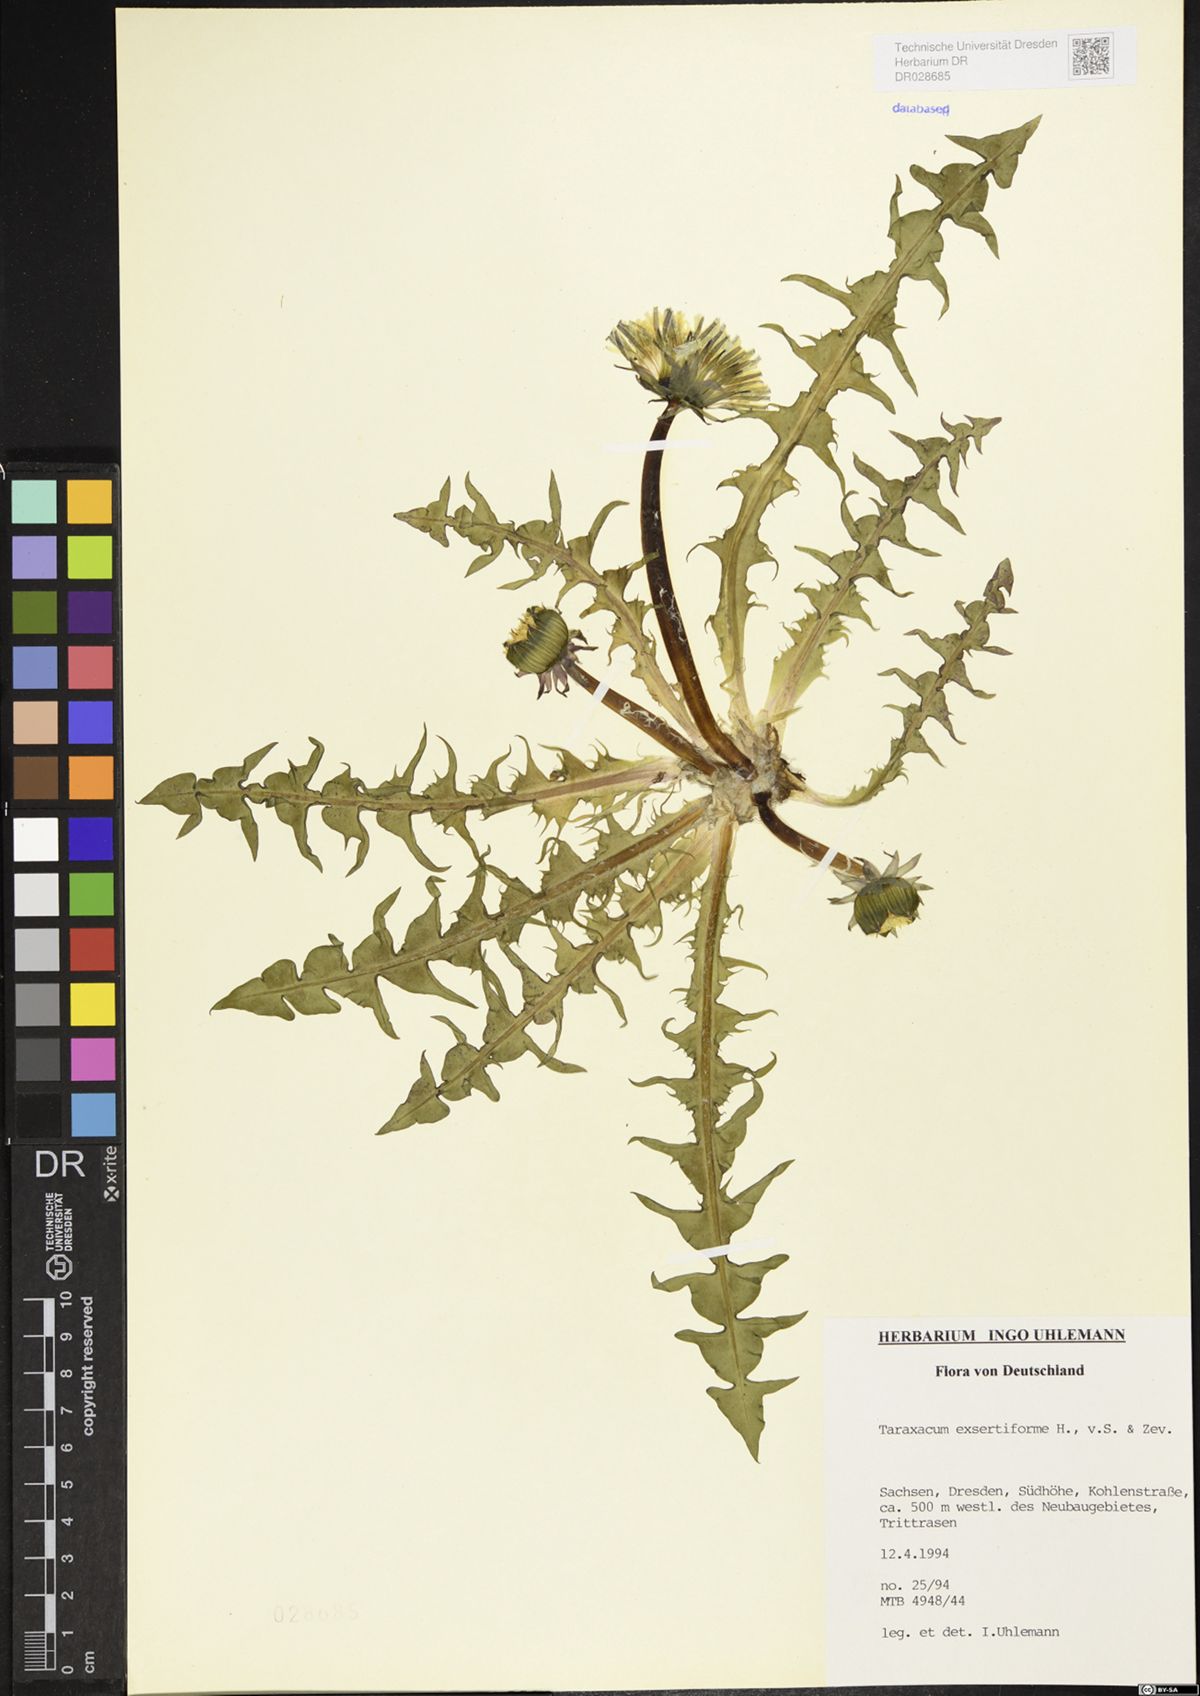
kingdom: Plantae
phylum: Tracheophyta
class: Magnoliopsida
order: Asterales
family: Asteraceae
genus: Taraxacum
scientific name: Taraxacum exsertiforme
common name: Erect-bracted dandelion
